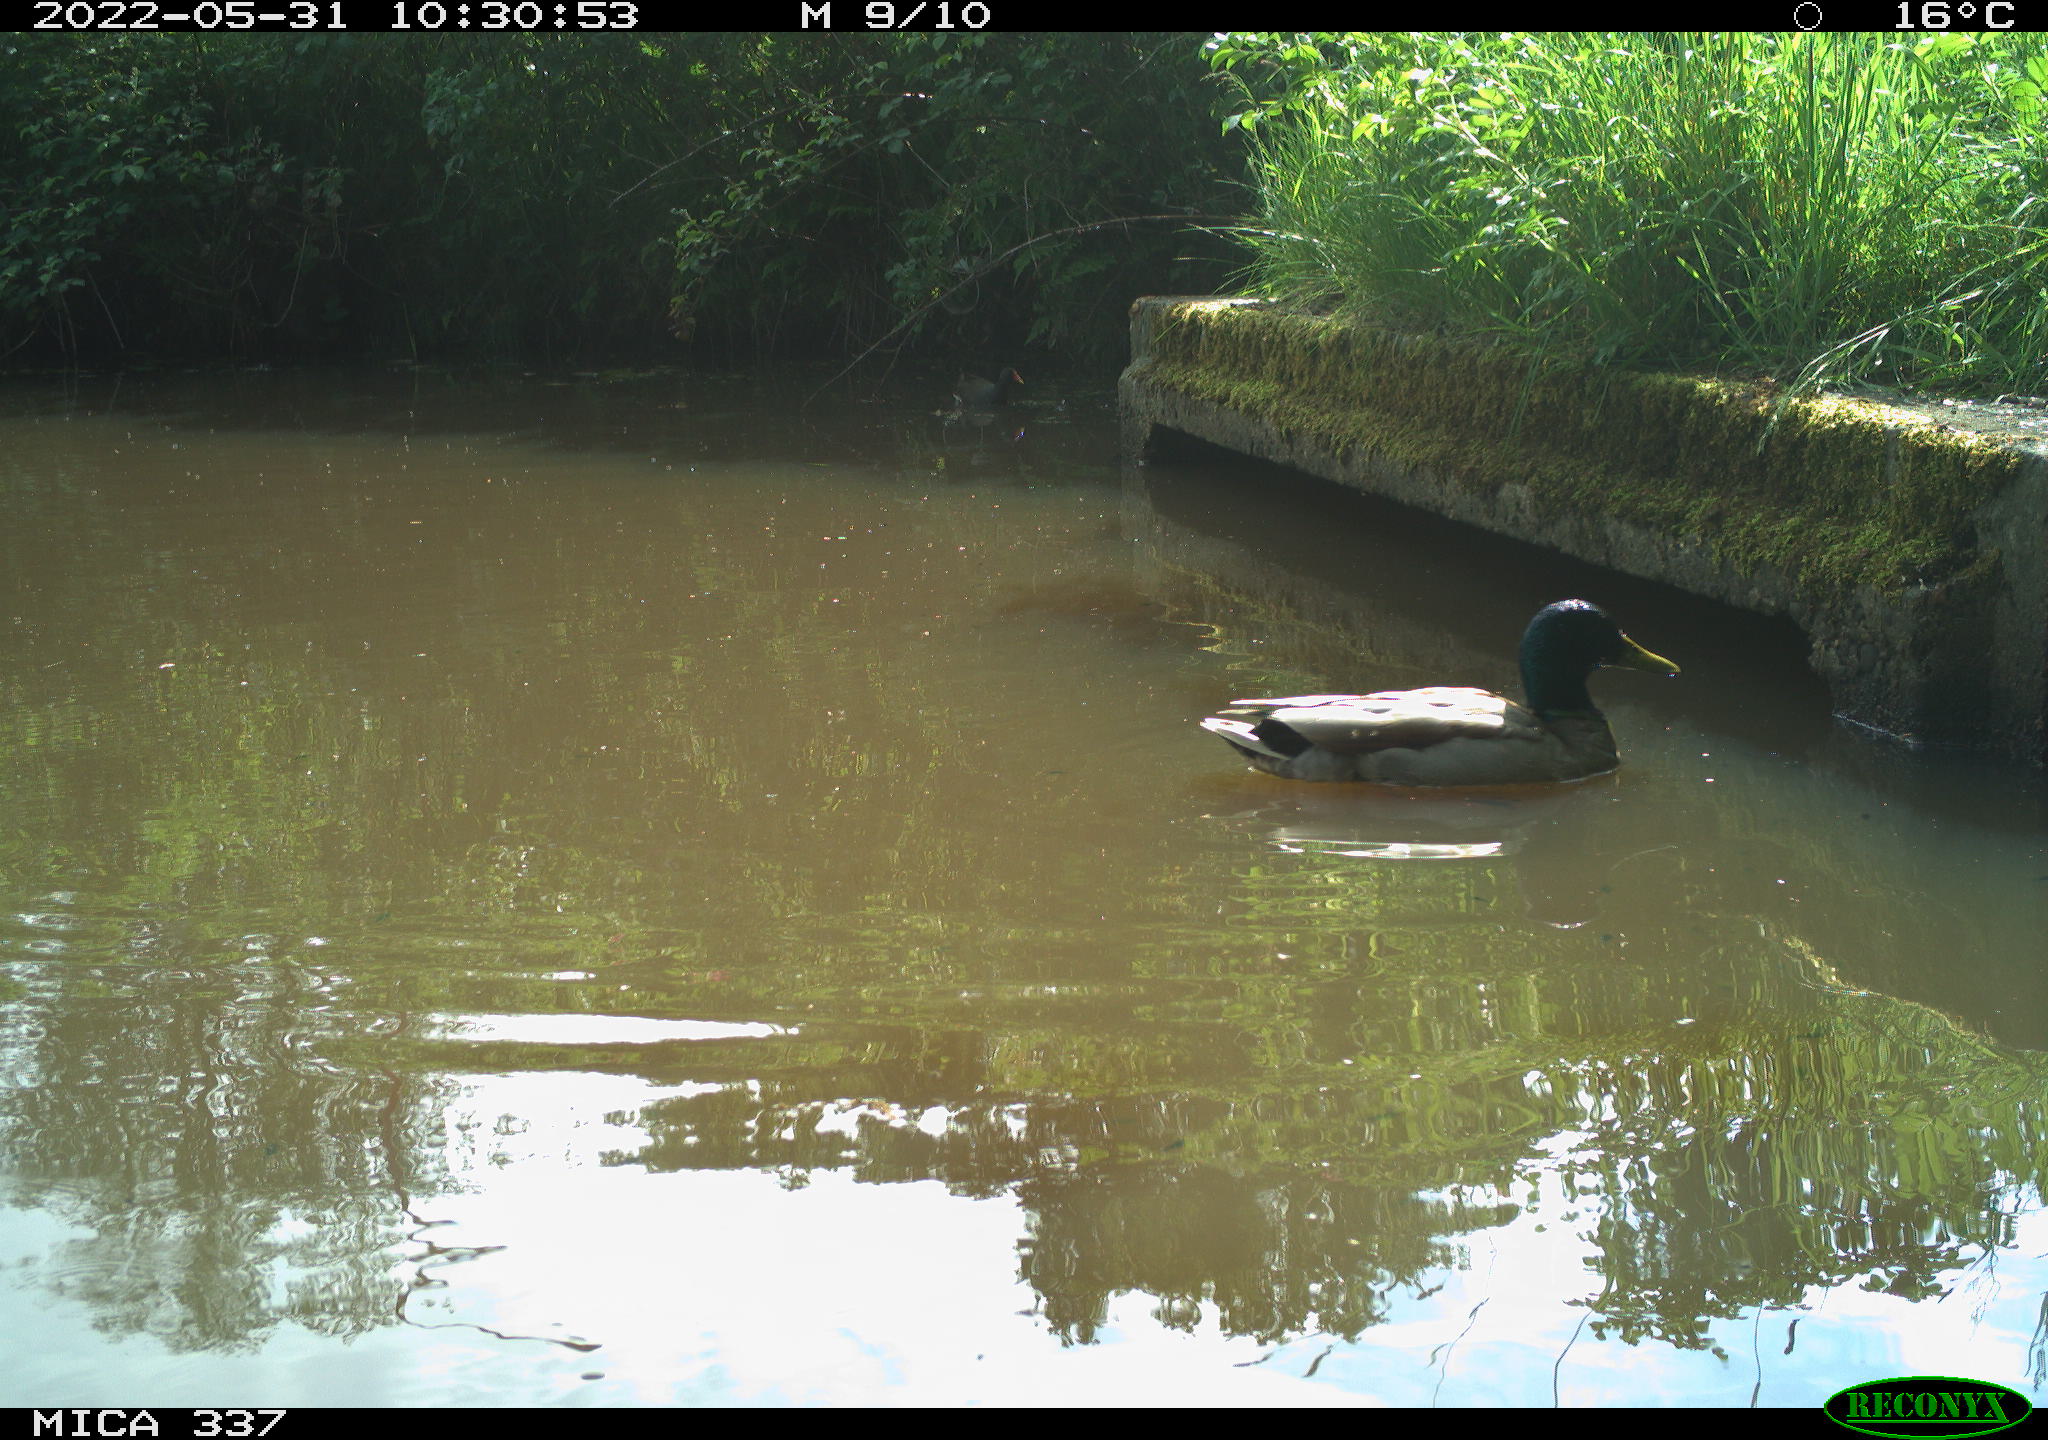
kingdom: Animalia
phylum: Chordata
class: Aves
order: Anseriformes
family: Anatidae
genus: Anas
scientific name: Anas platyrhynchos
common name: Mallard
